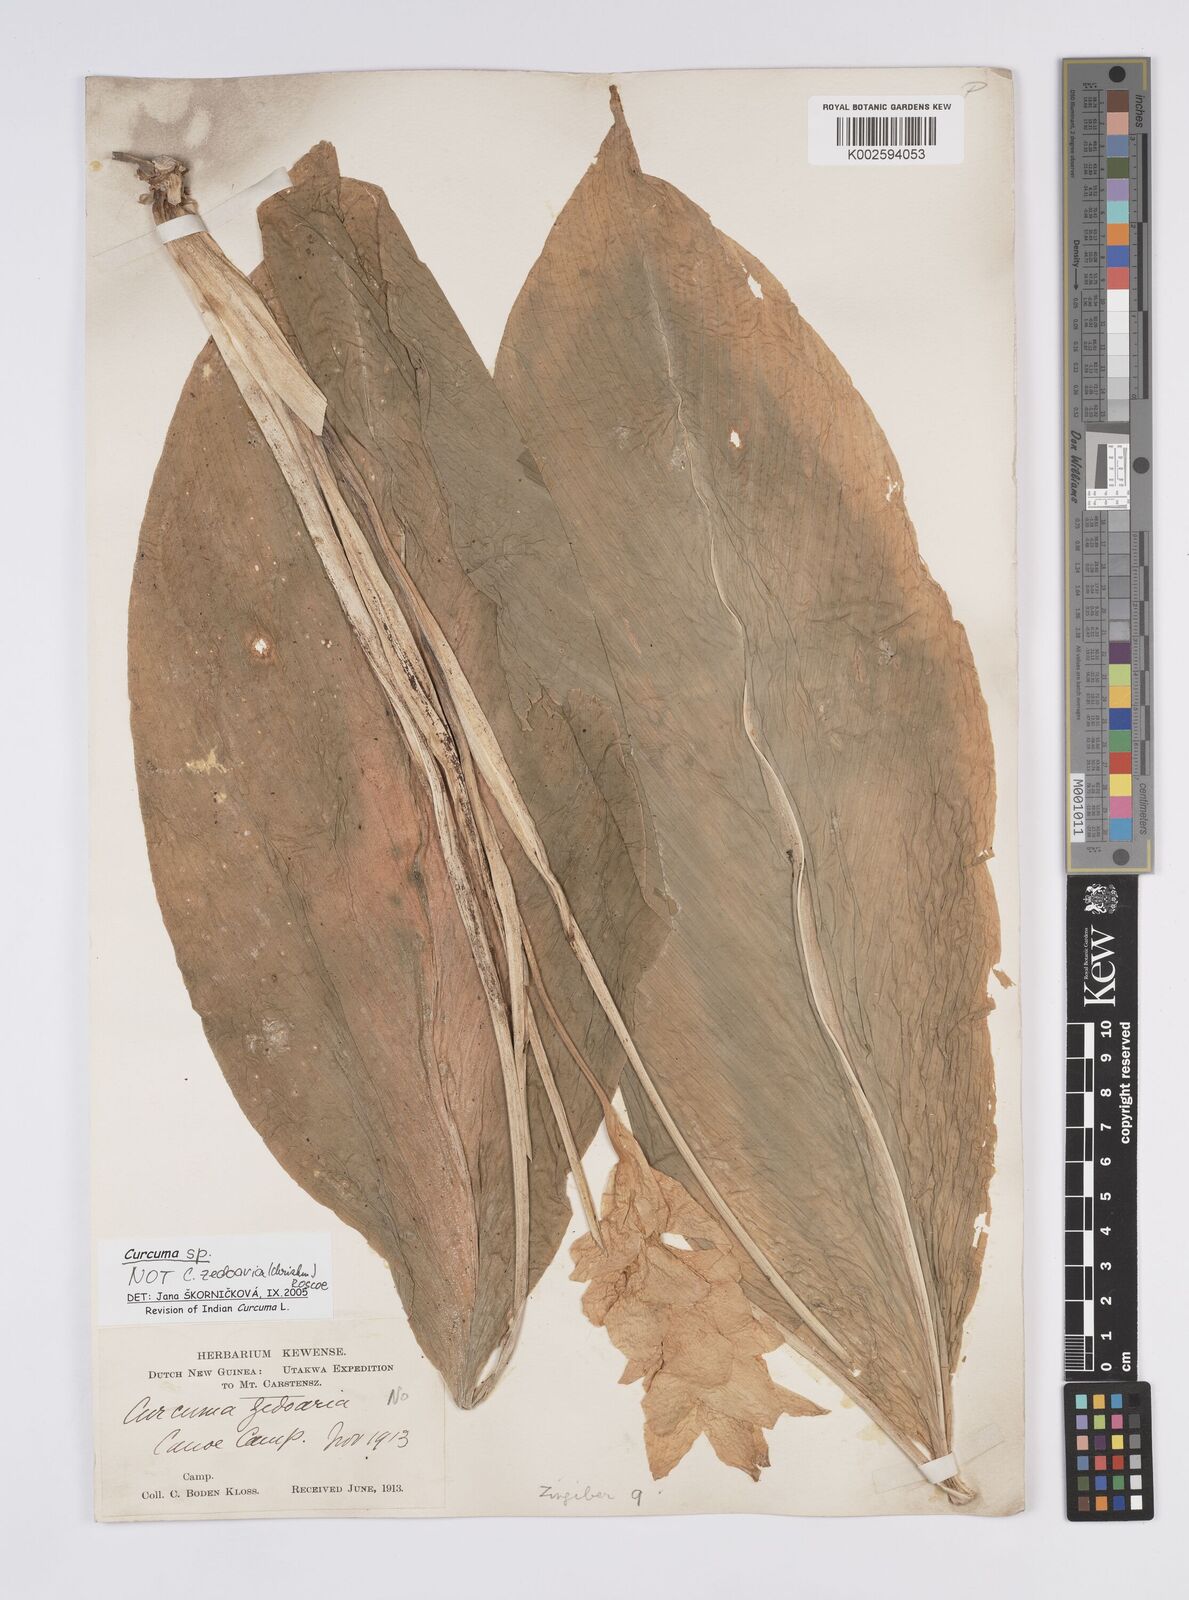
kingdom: Plantae
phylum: Tracheophyta
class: Liliopsida
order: Zingiberales
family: Zingiberaceae
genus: Curcuma
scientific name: Curcuma
